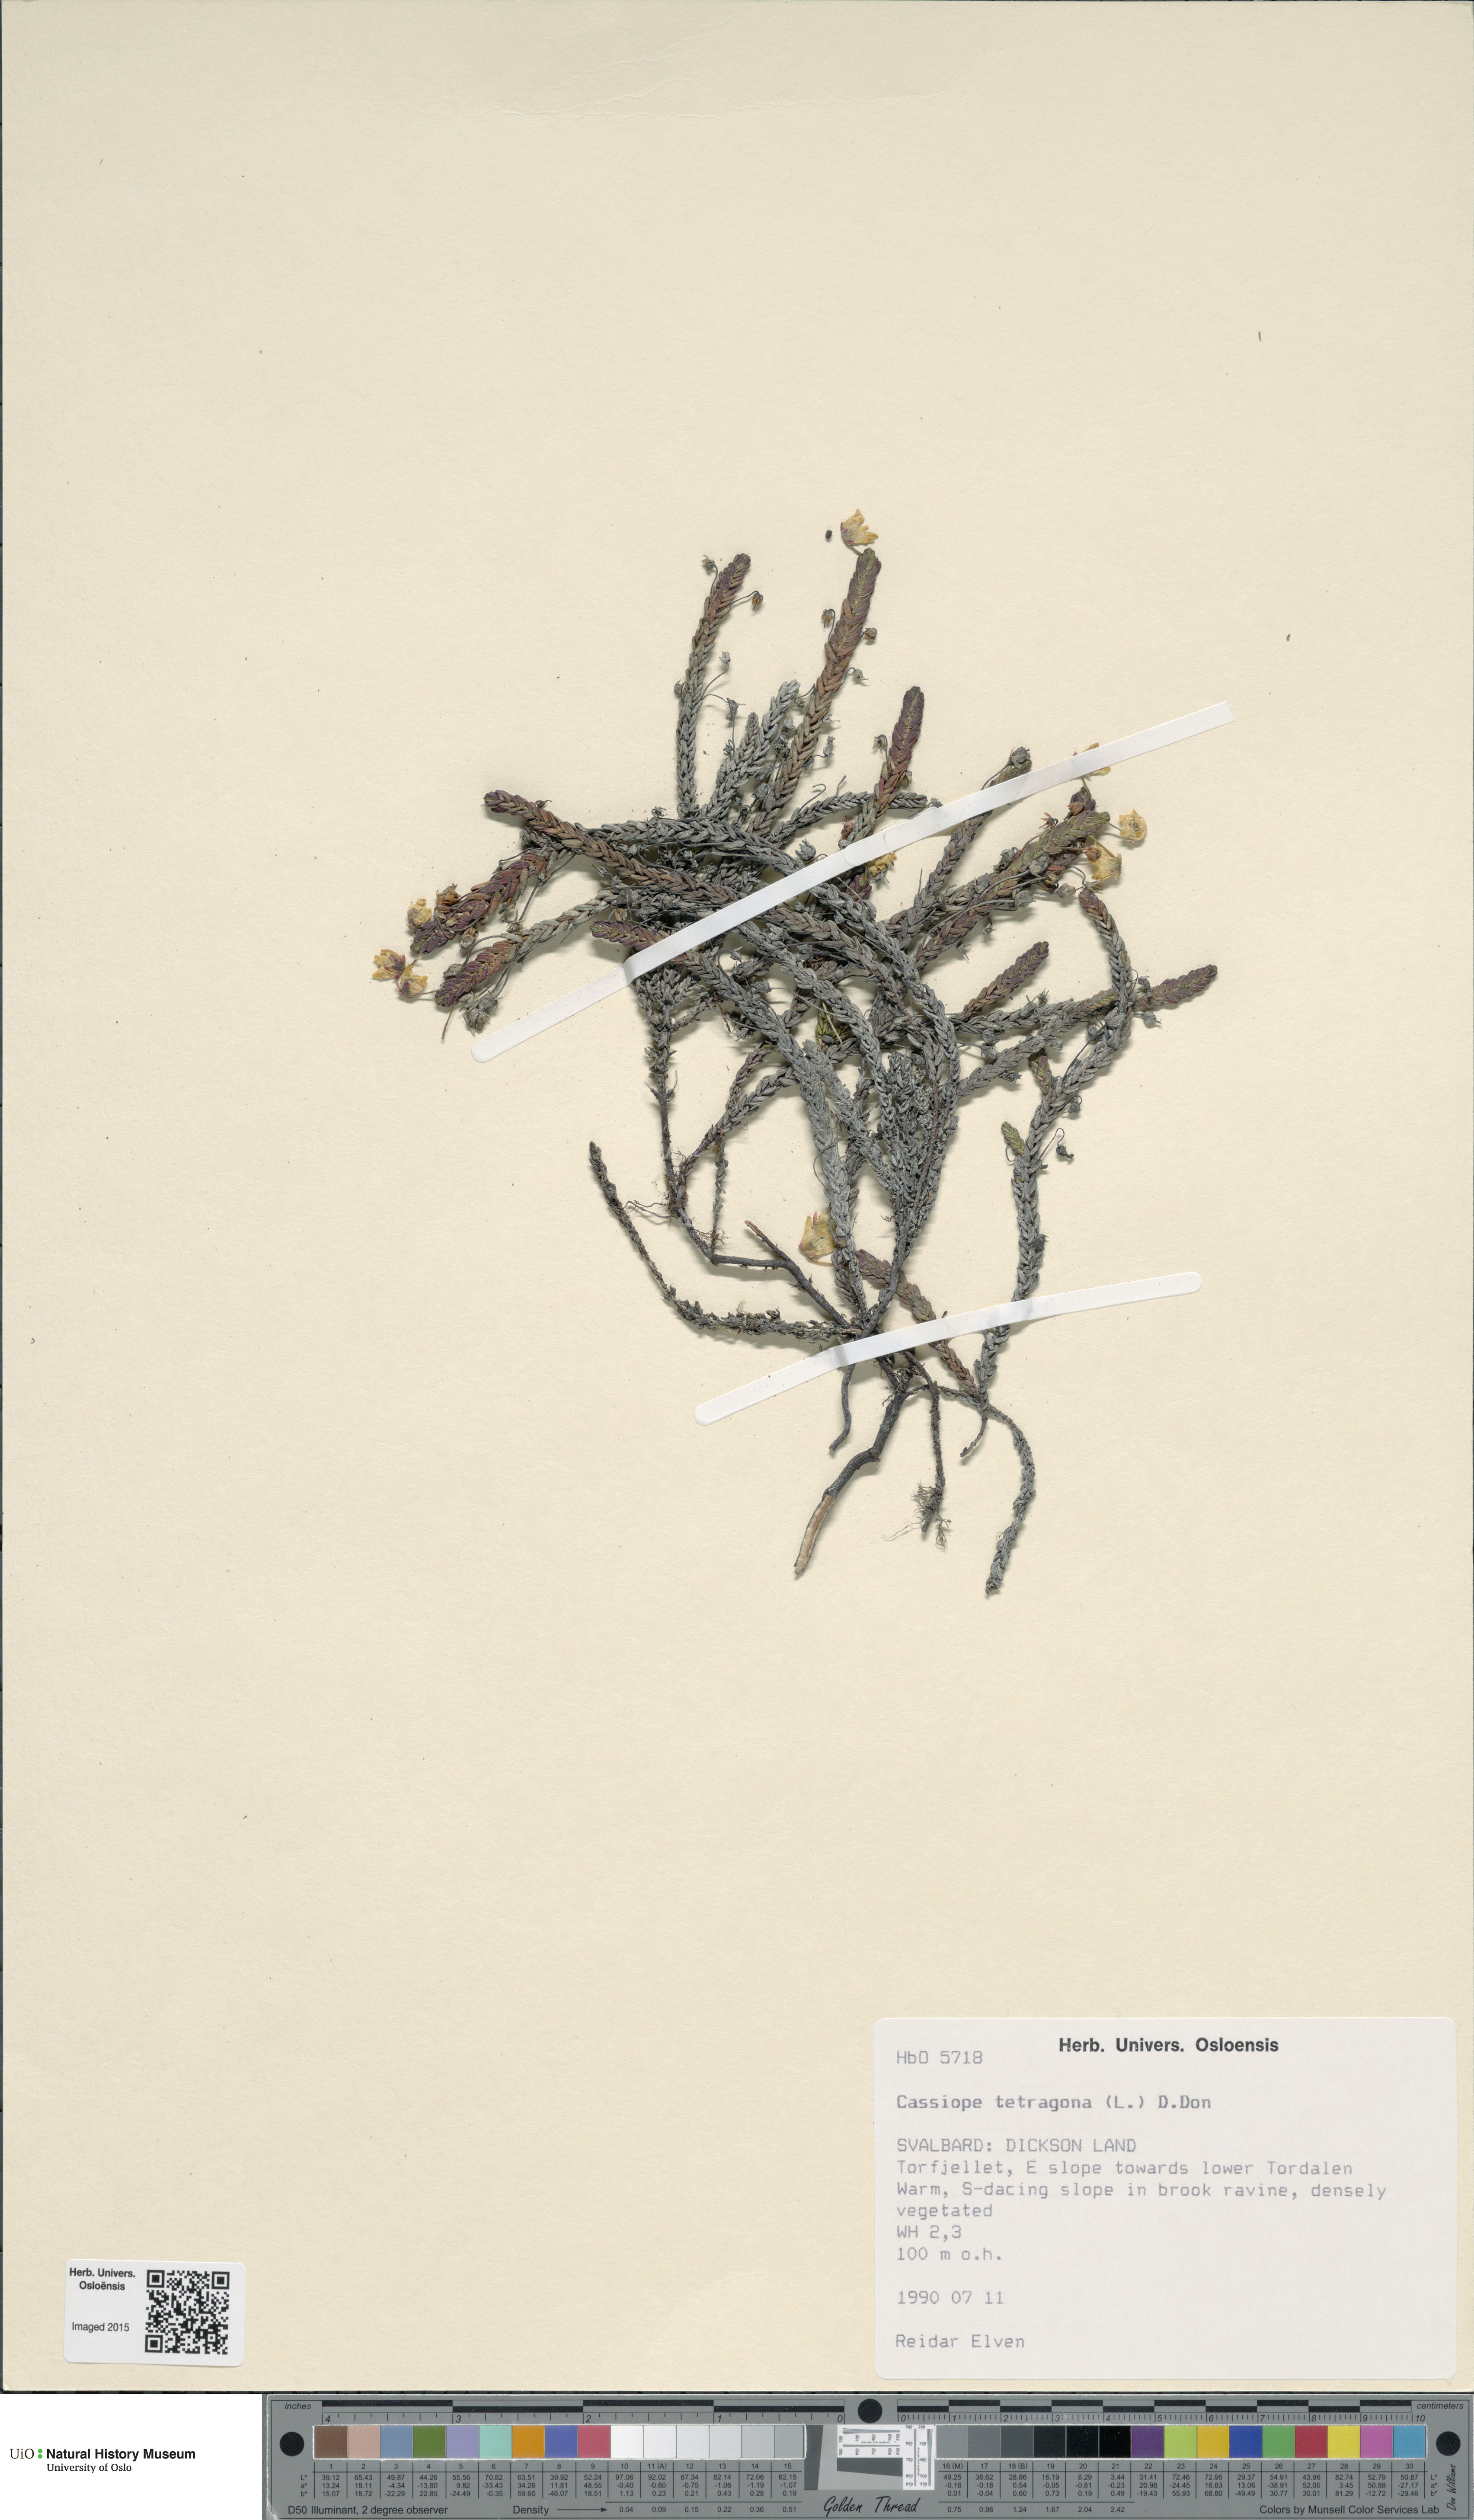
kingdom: Plantae
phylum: Tracheophyta
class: Magnoliopsida
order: Ericales
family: Ericaceae
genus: Cassiope
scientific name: Cassiope tetragona
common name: Arctic bell heather
